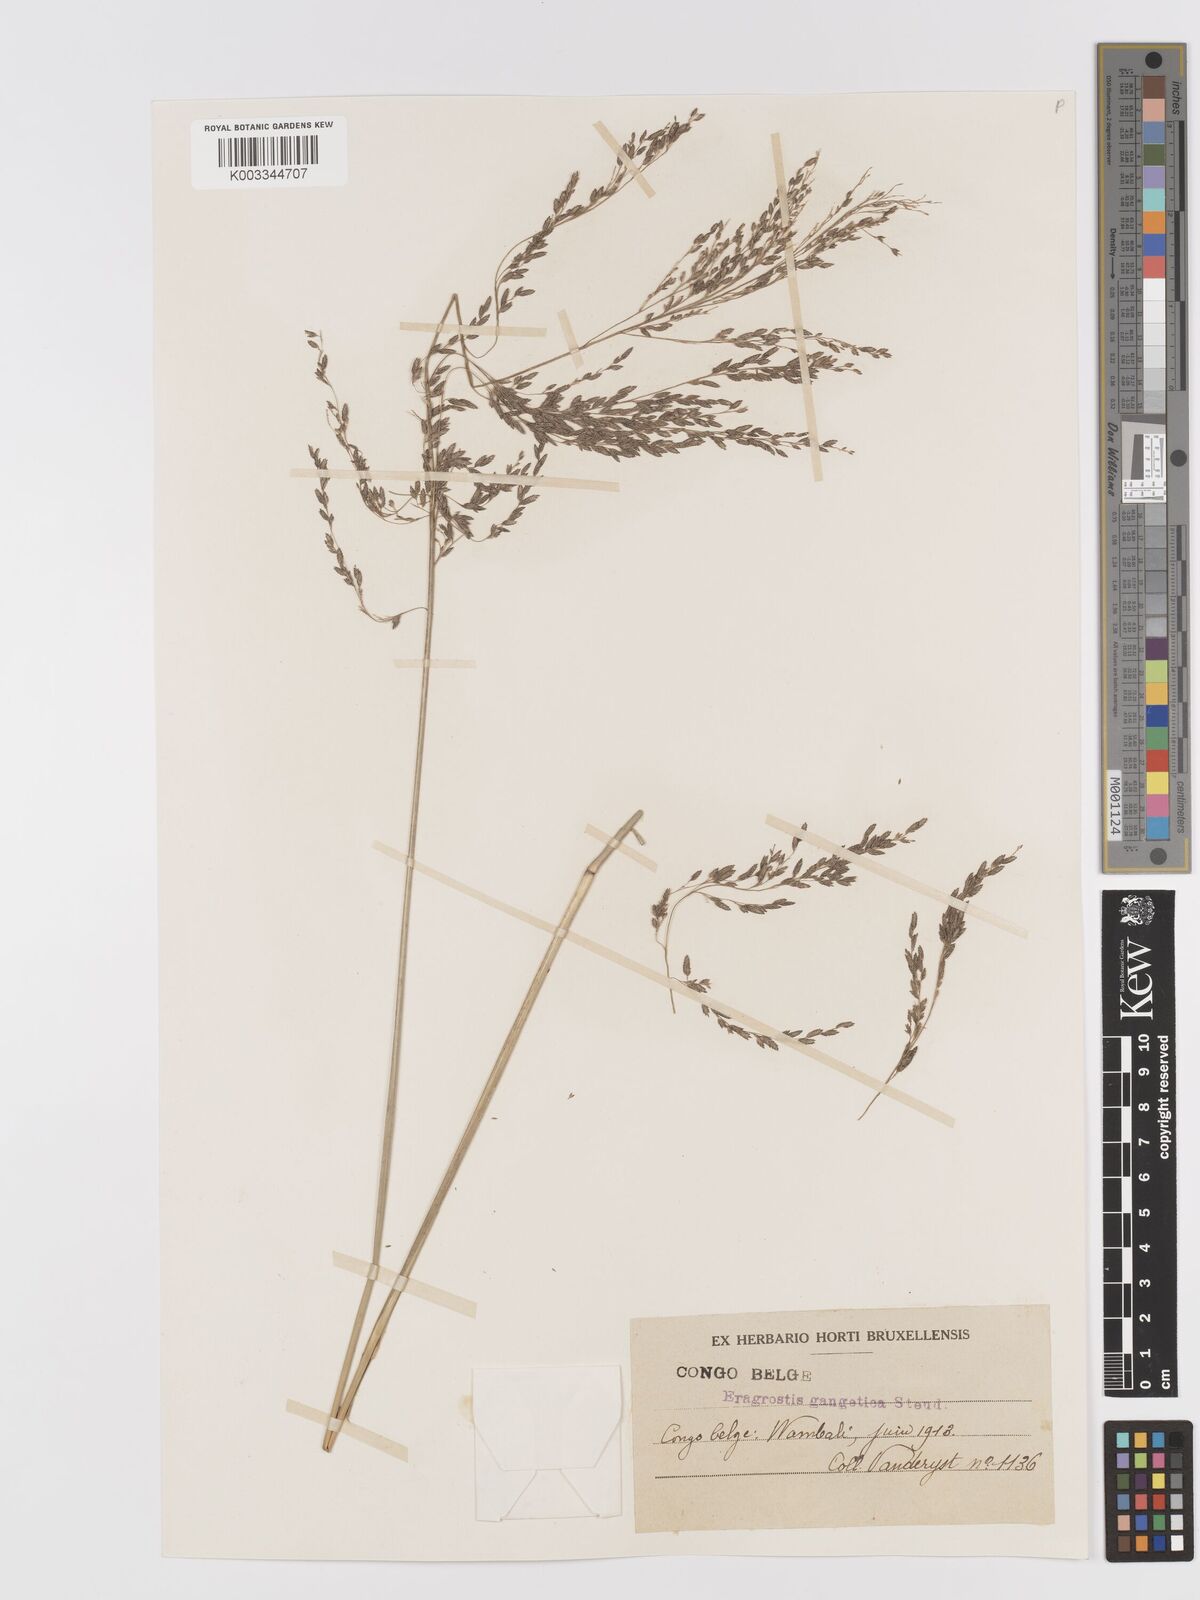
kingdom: Plantae
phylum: Tracheophyta
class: Liliopsida
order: Poales
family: Poaceae
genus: Eragrostis
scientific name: Eragrostis atrovirens
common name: Thalia lovegrass
